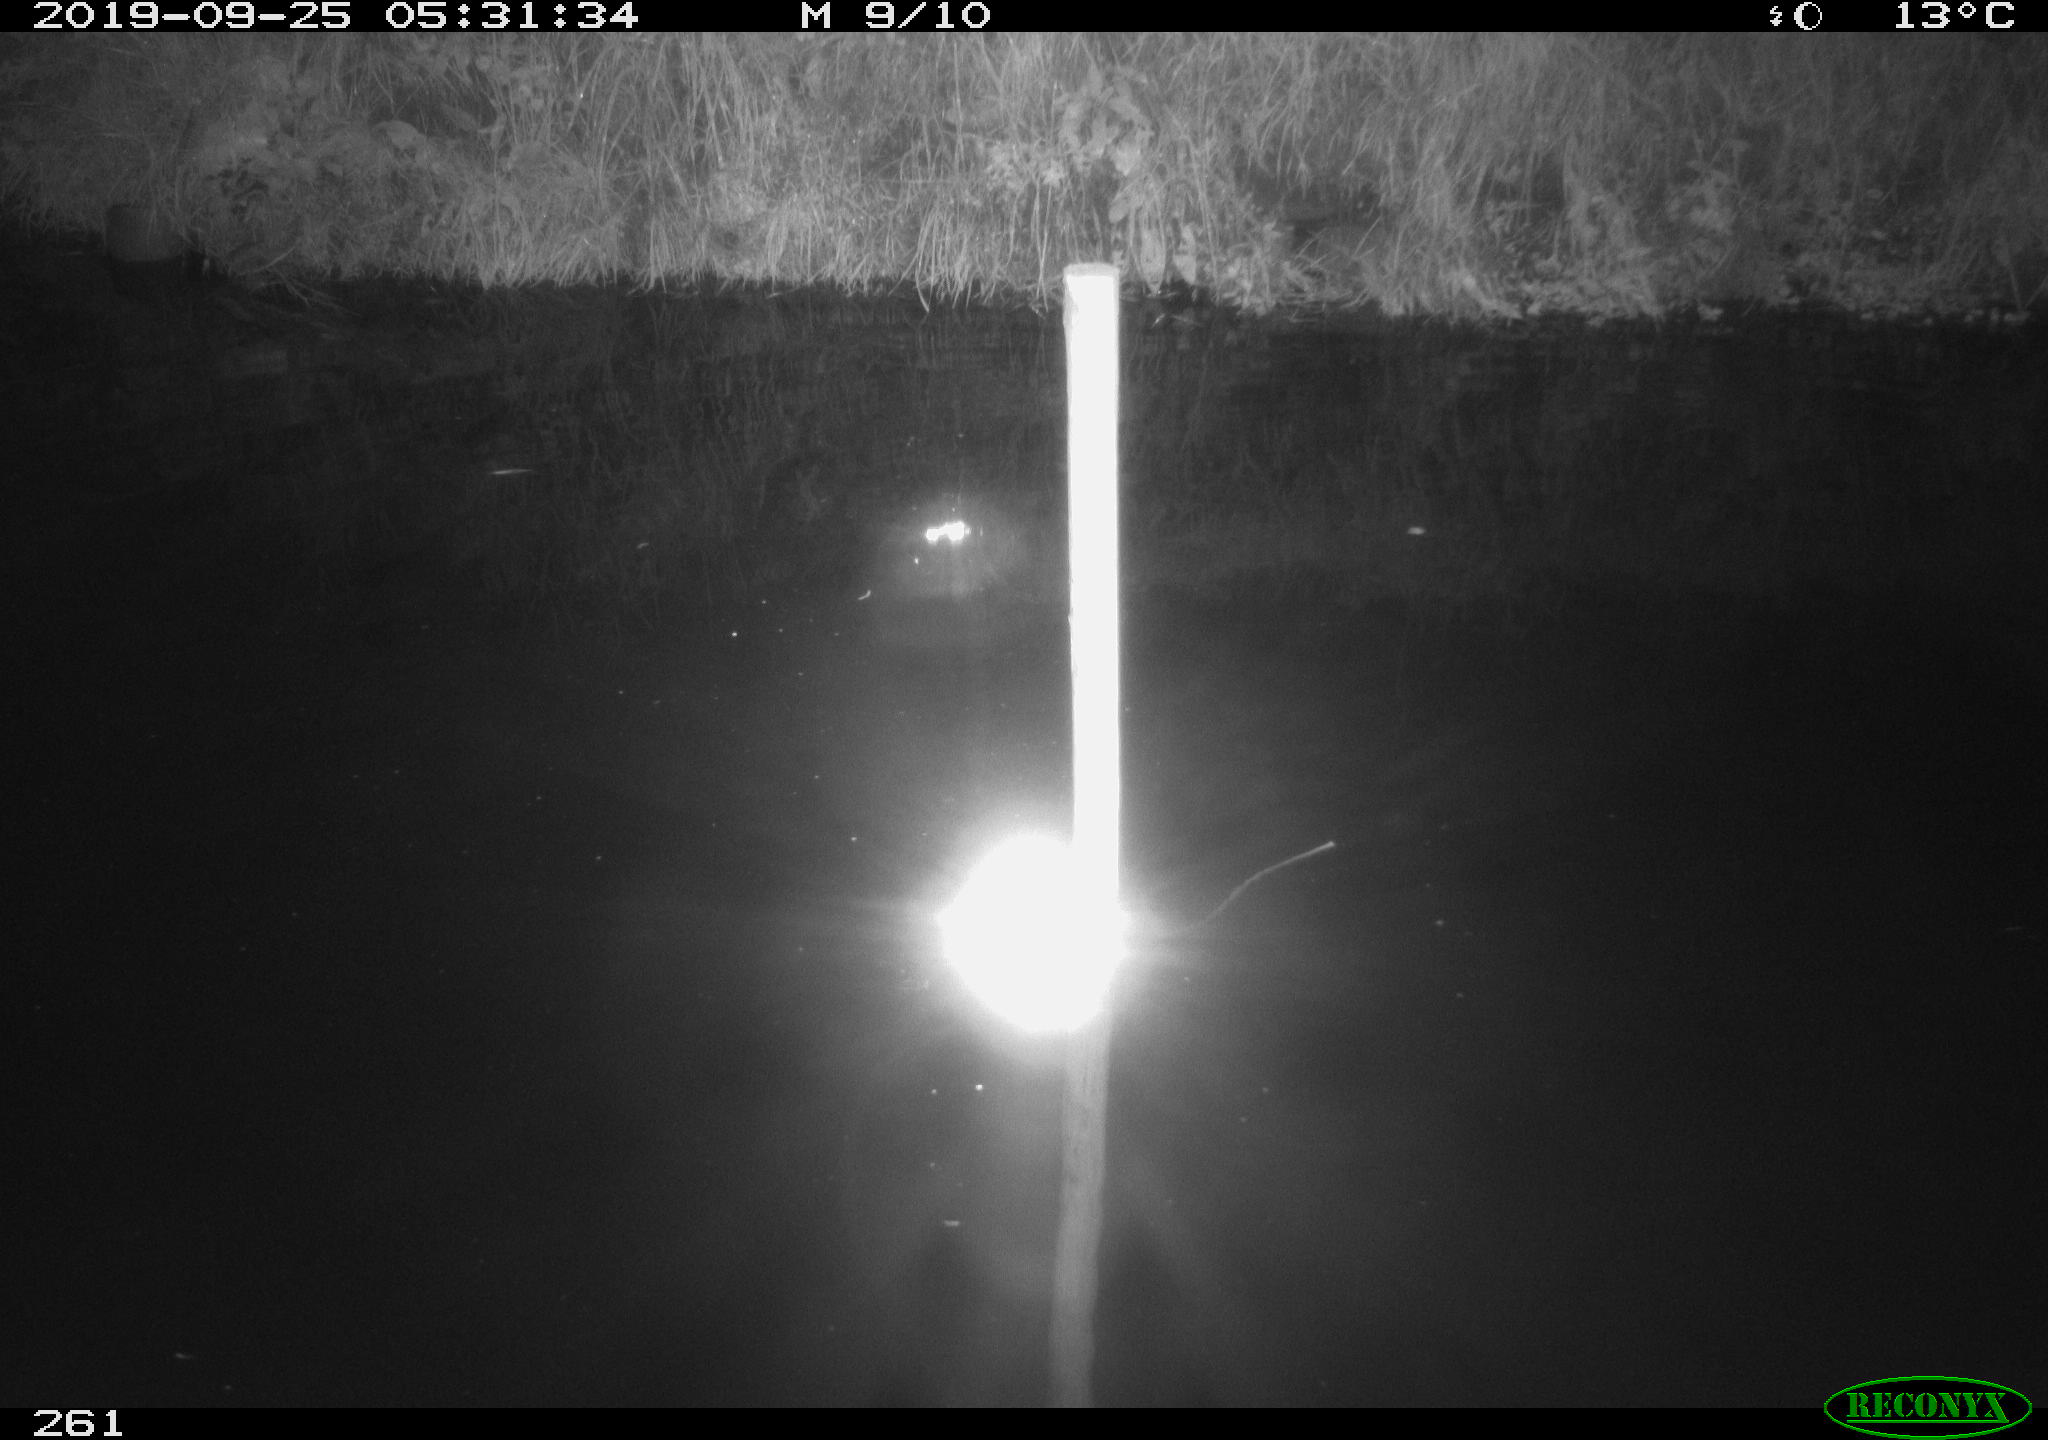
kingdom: Animalia
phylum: Chordata
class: Aves
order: Anseriformes
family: Anatidae
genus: Anas
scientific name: Anas platyrhynchos
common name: Mallard
